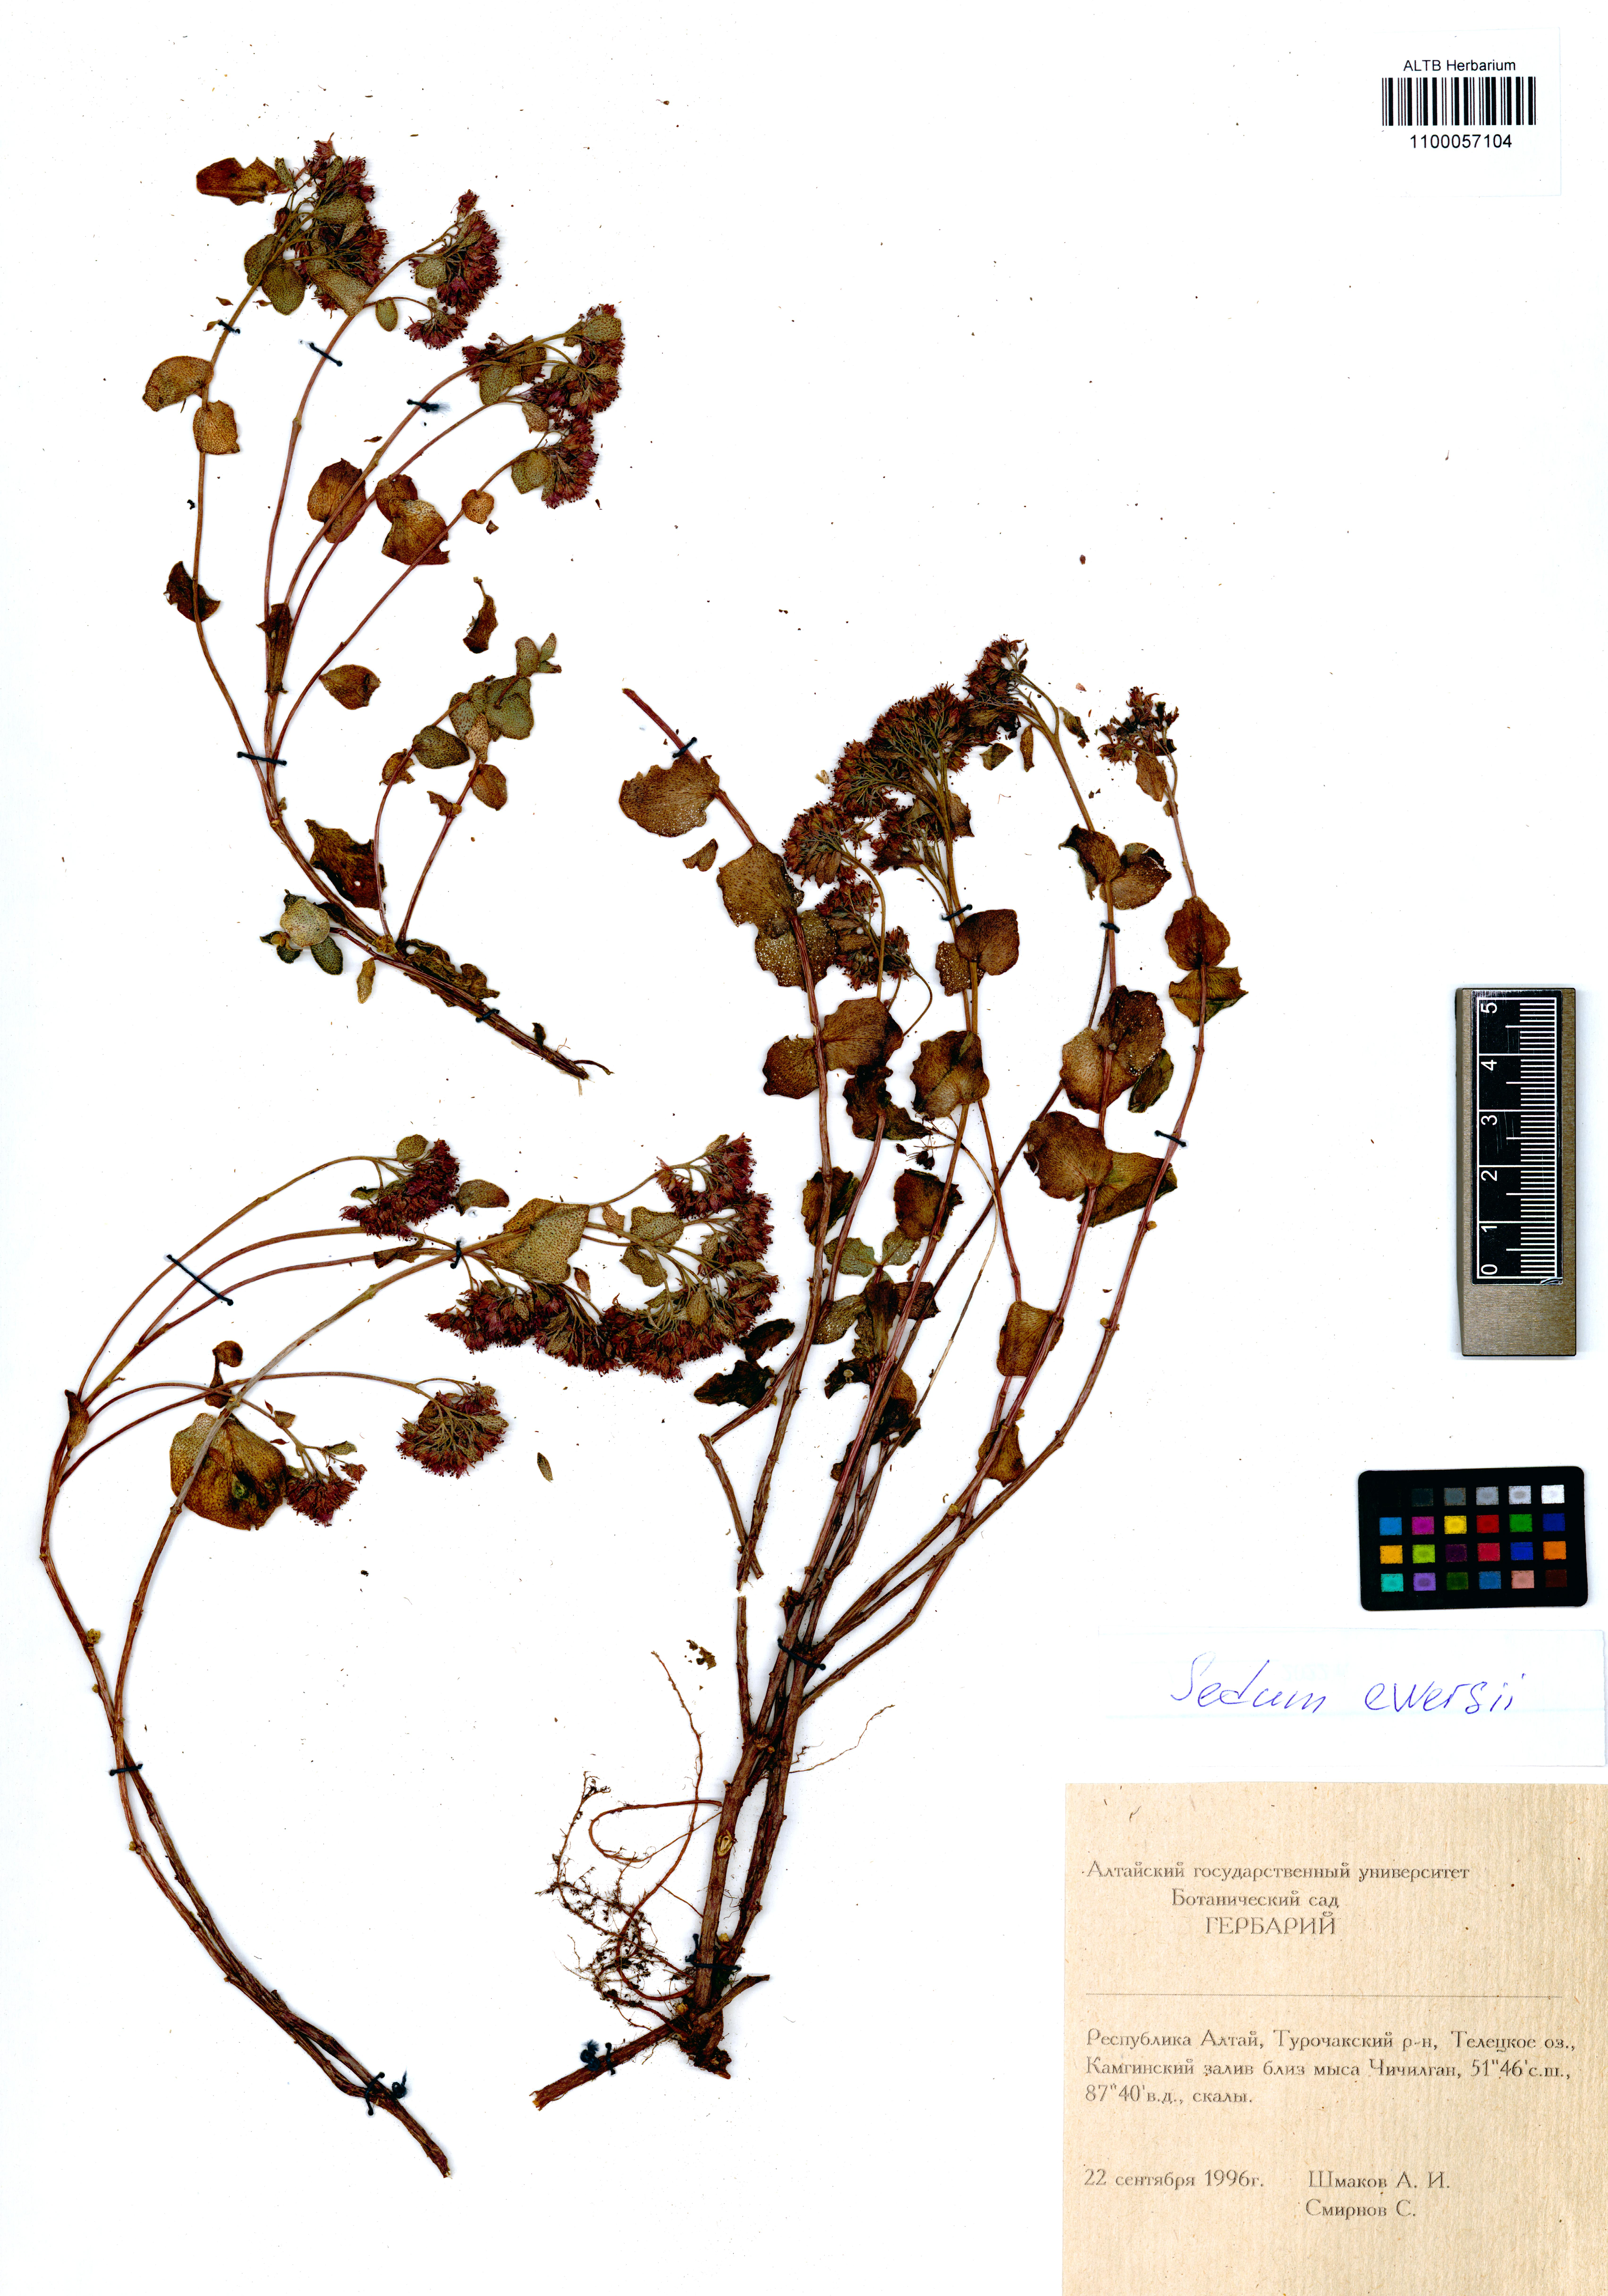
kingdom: Plantae
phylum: Tracheophyta
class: Magnoliopsida
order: Saxifragales
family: Crassulaceae
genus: Hylotelephium
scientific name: Hylotelephium ewersii
